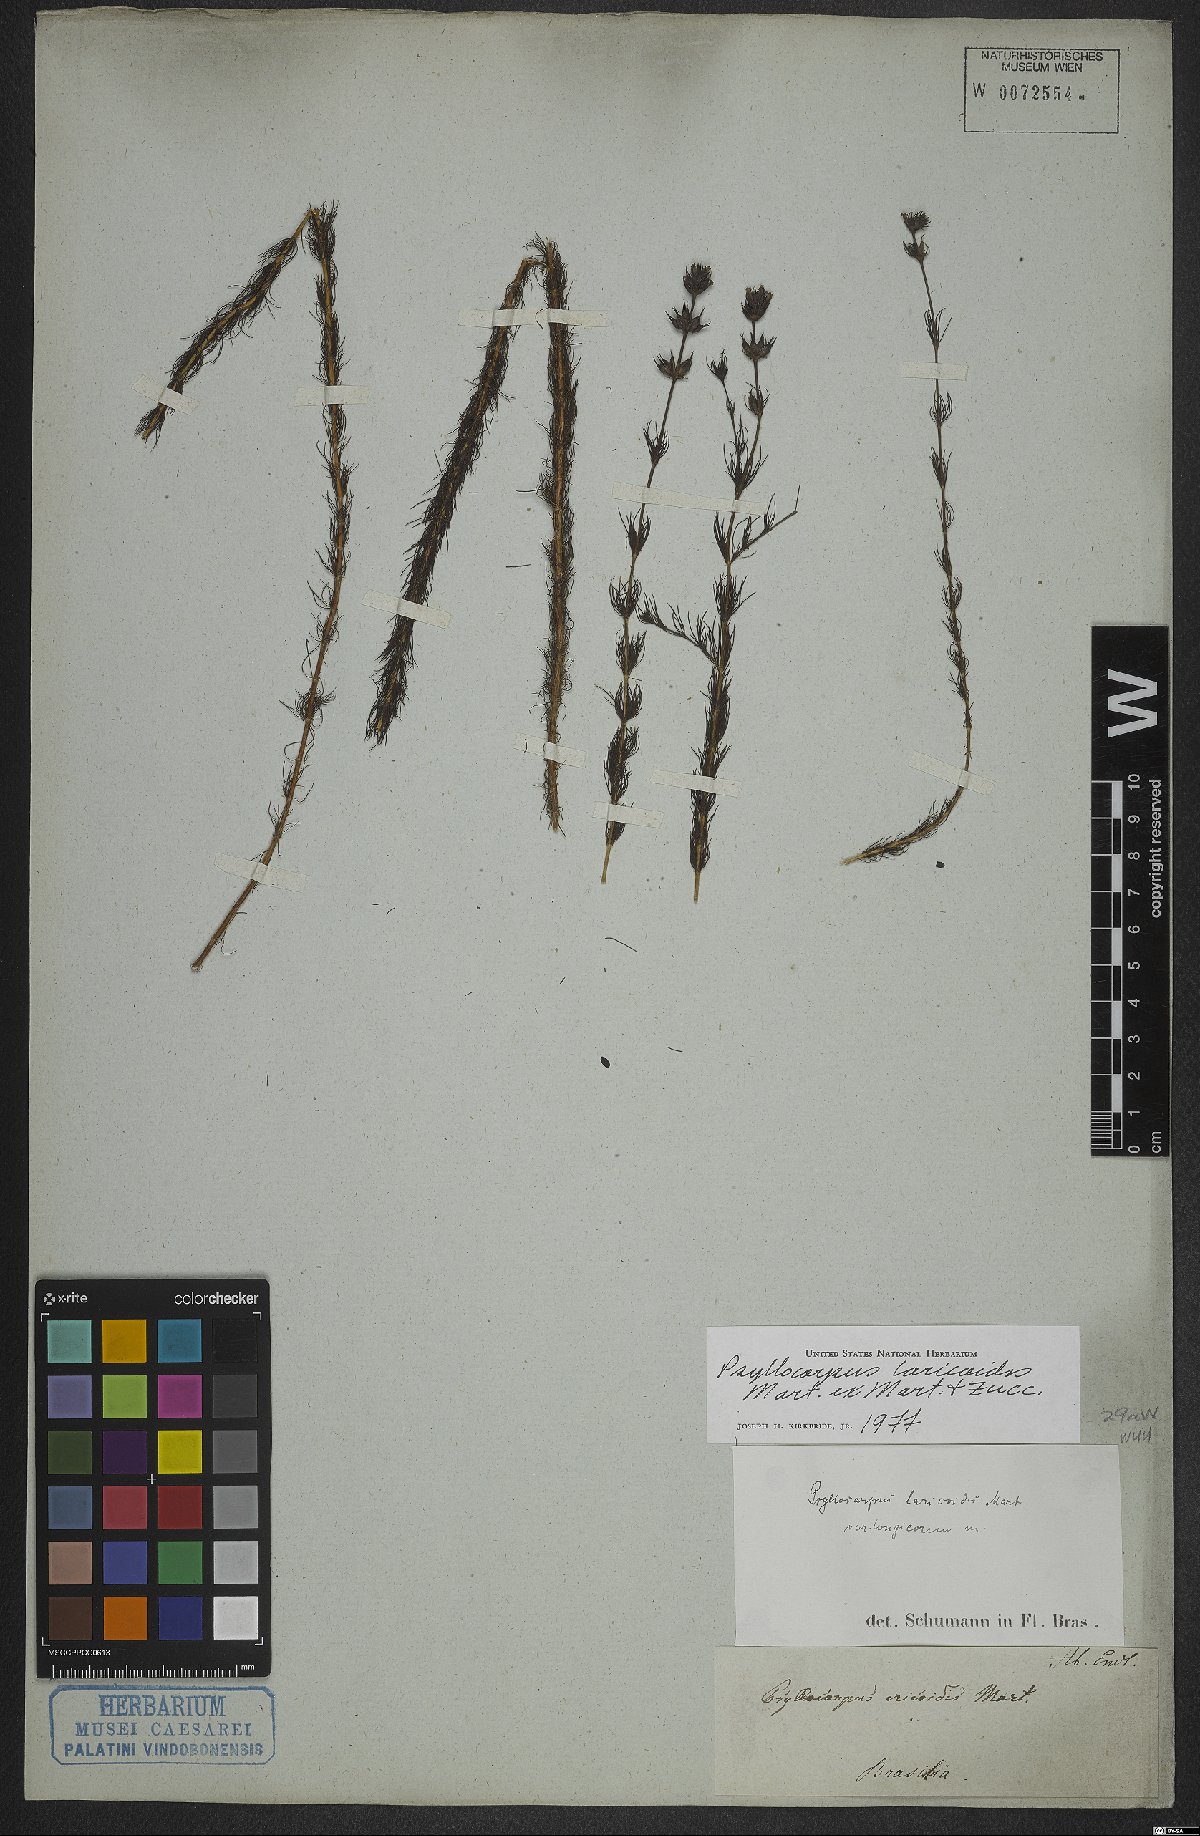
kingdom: Plantae
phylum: Tracheophyta
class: Magnoliopsida
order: Gentianales
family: Rubiaceae
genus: Psyllocarpus
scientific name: Psyllocarpus laricoides
